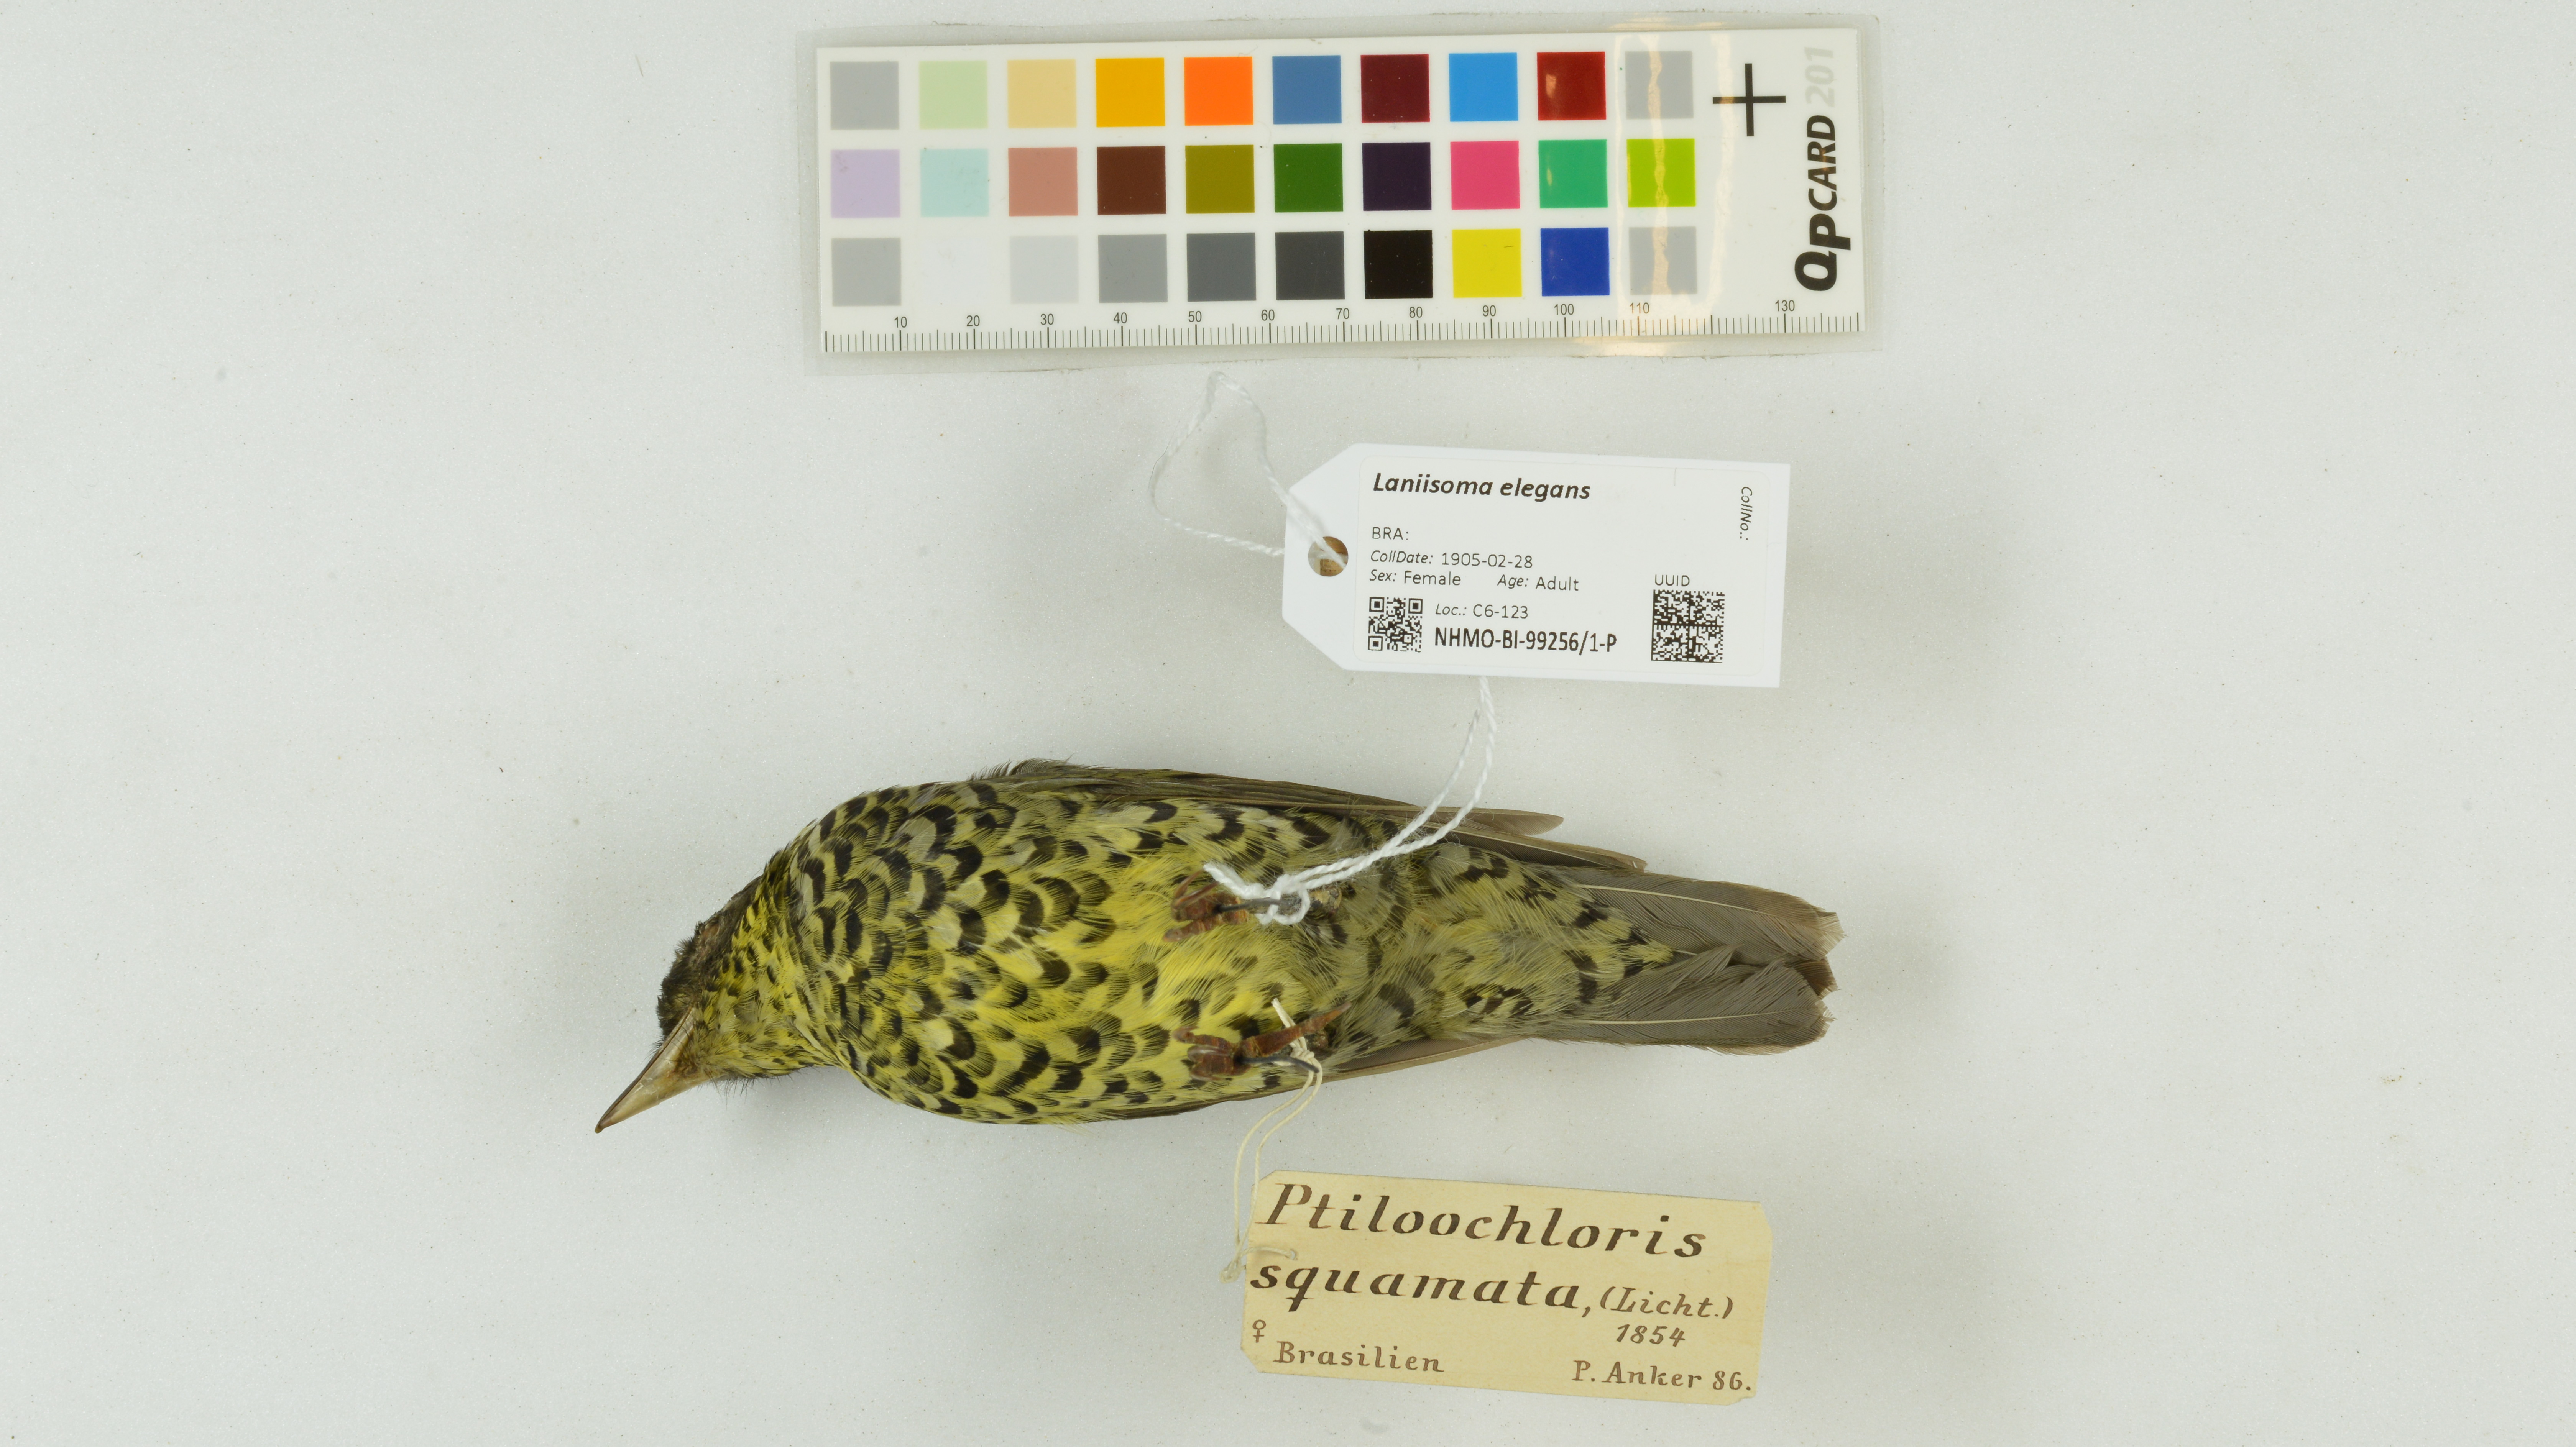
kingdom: Animalia
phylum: Chordata
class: Aves
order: Passeriformes
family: Cotingidae
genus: Laniisoma
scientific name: Laniisoma elegans
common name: Brazilian laniisoma
